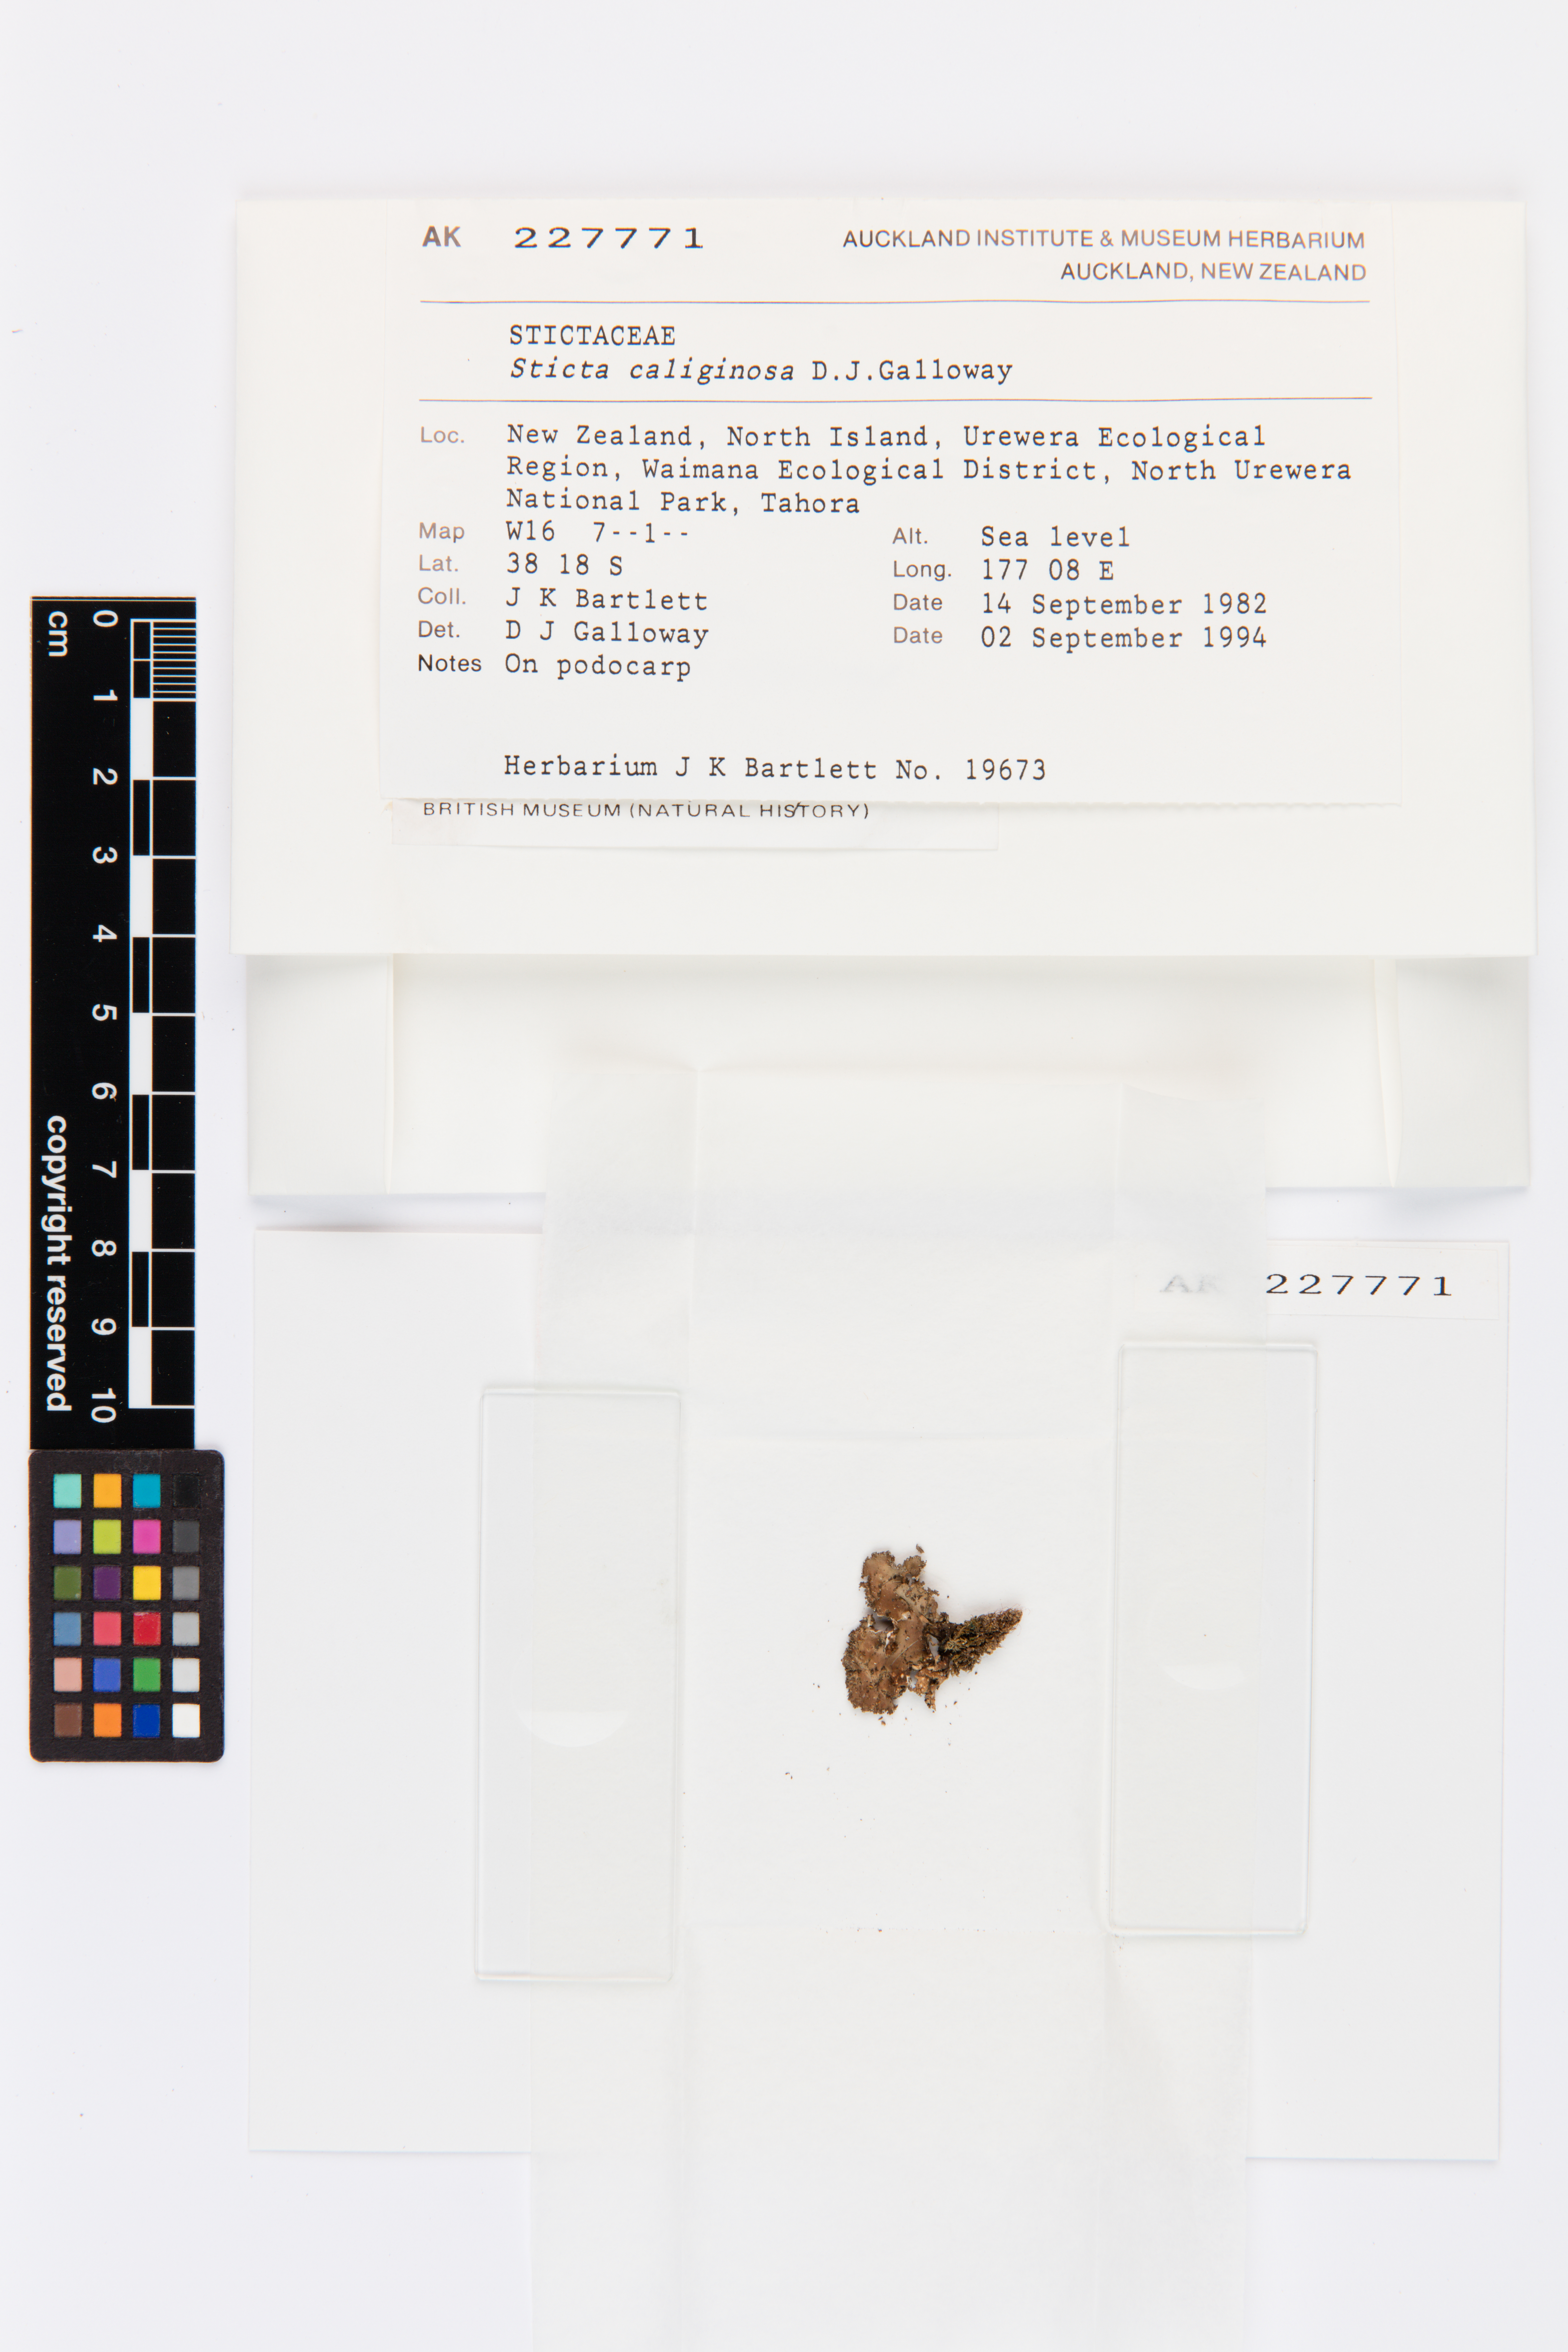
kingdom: Fungi
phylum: Ascomycota
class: Lecanoromycetes
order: Peltigerales
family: Lobariaceae
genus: Sticta
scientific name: Sticta caliginosa
